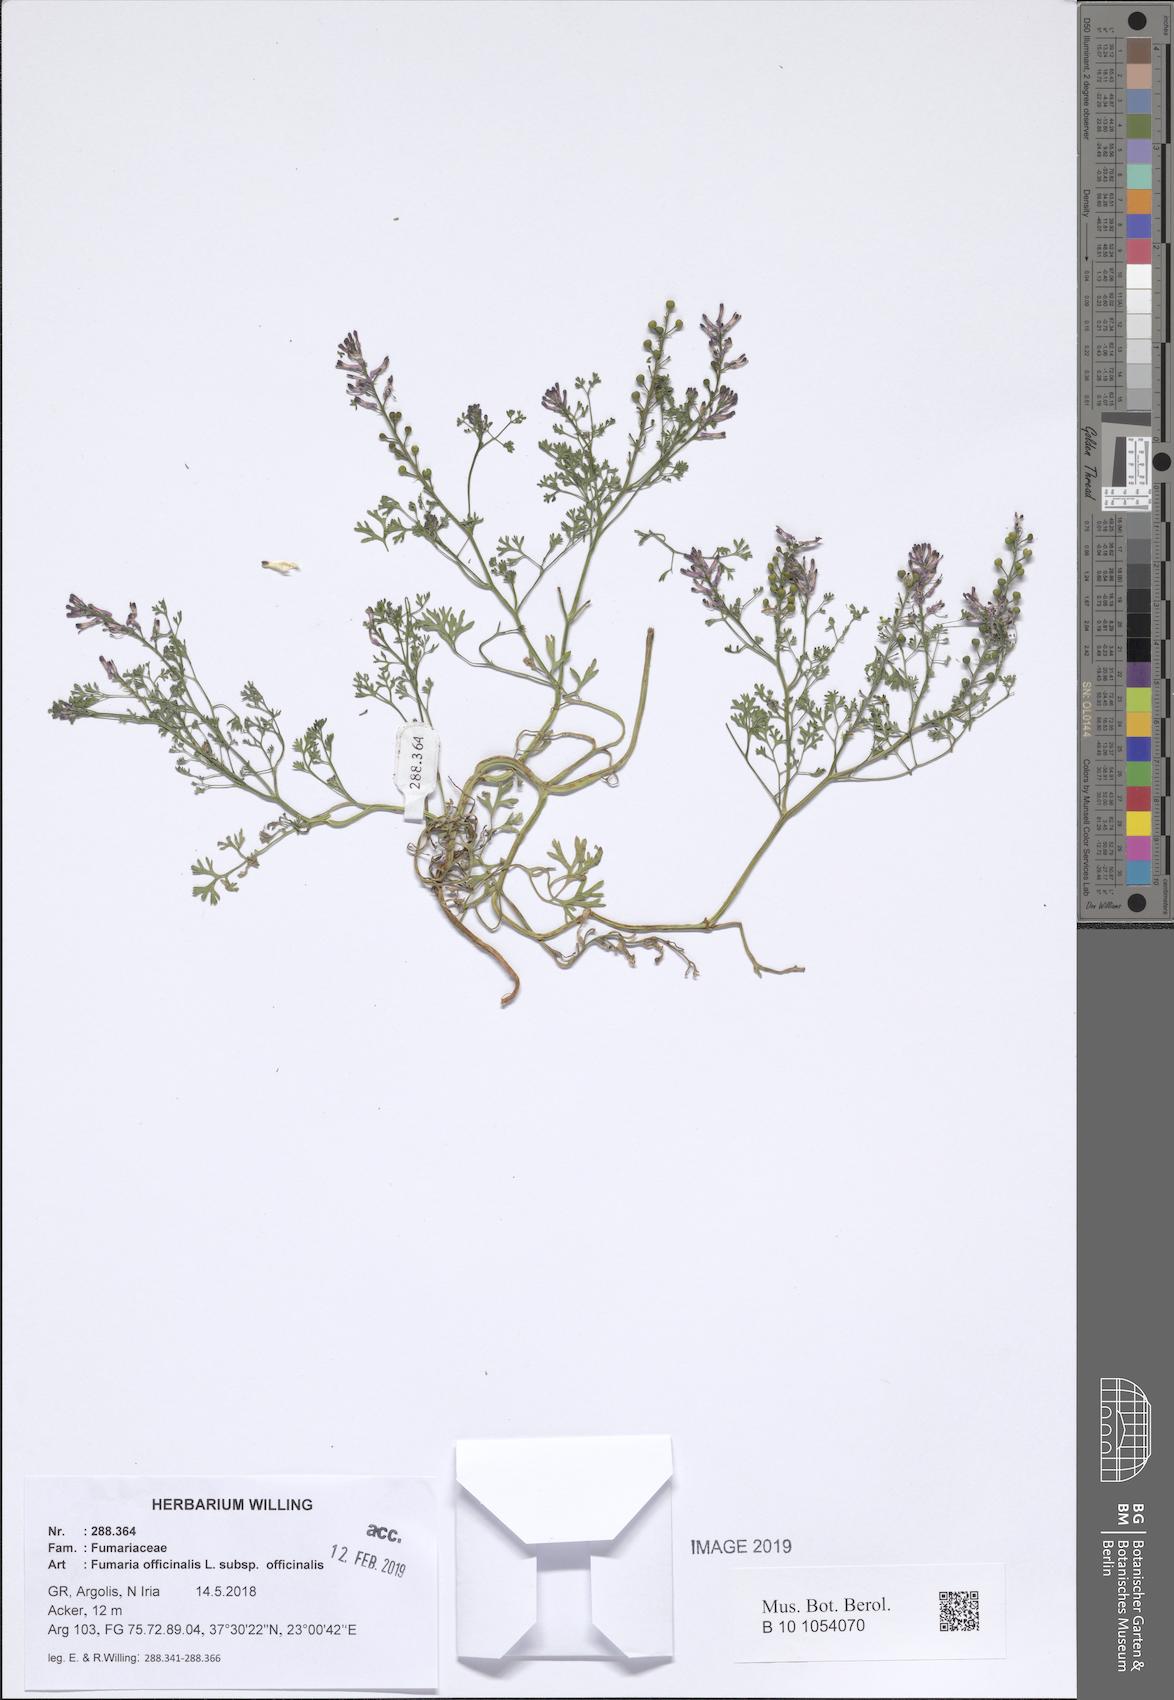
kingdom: Plantae
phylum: Tracheophyta
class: Magnoliopsida
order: Ranunculales
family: Papaveraceae
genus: Fumaria
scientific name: Fumaria officinalis
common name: Common fumitory
